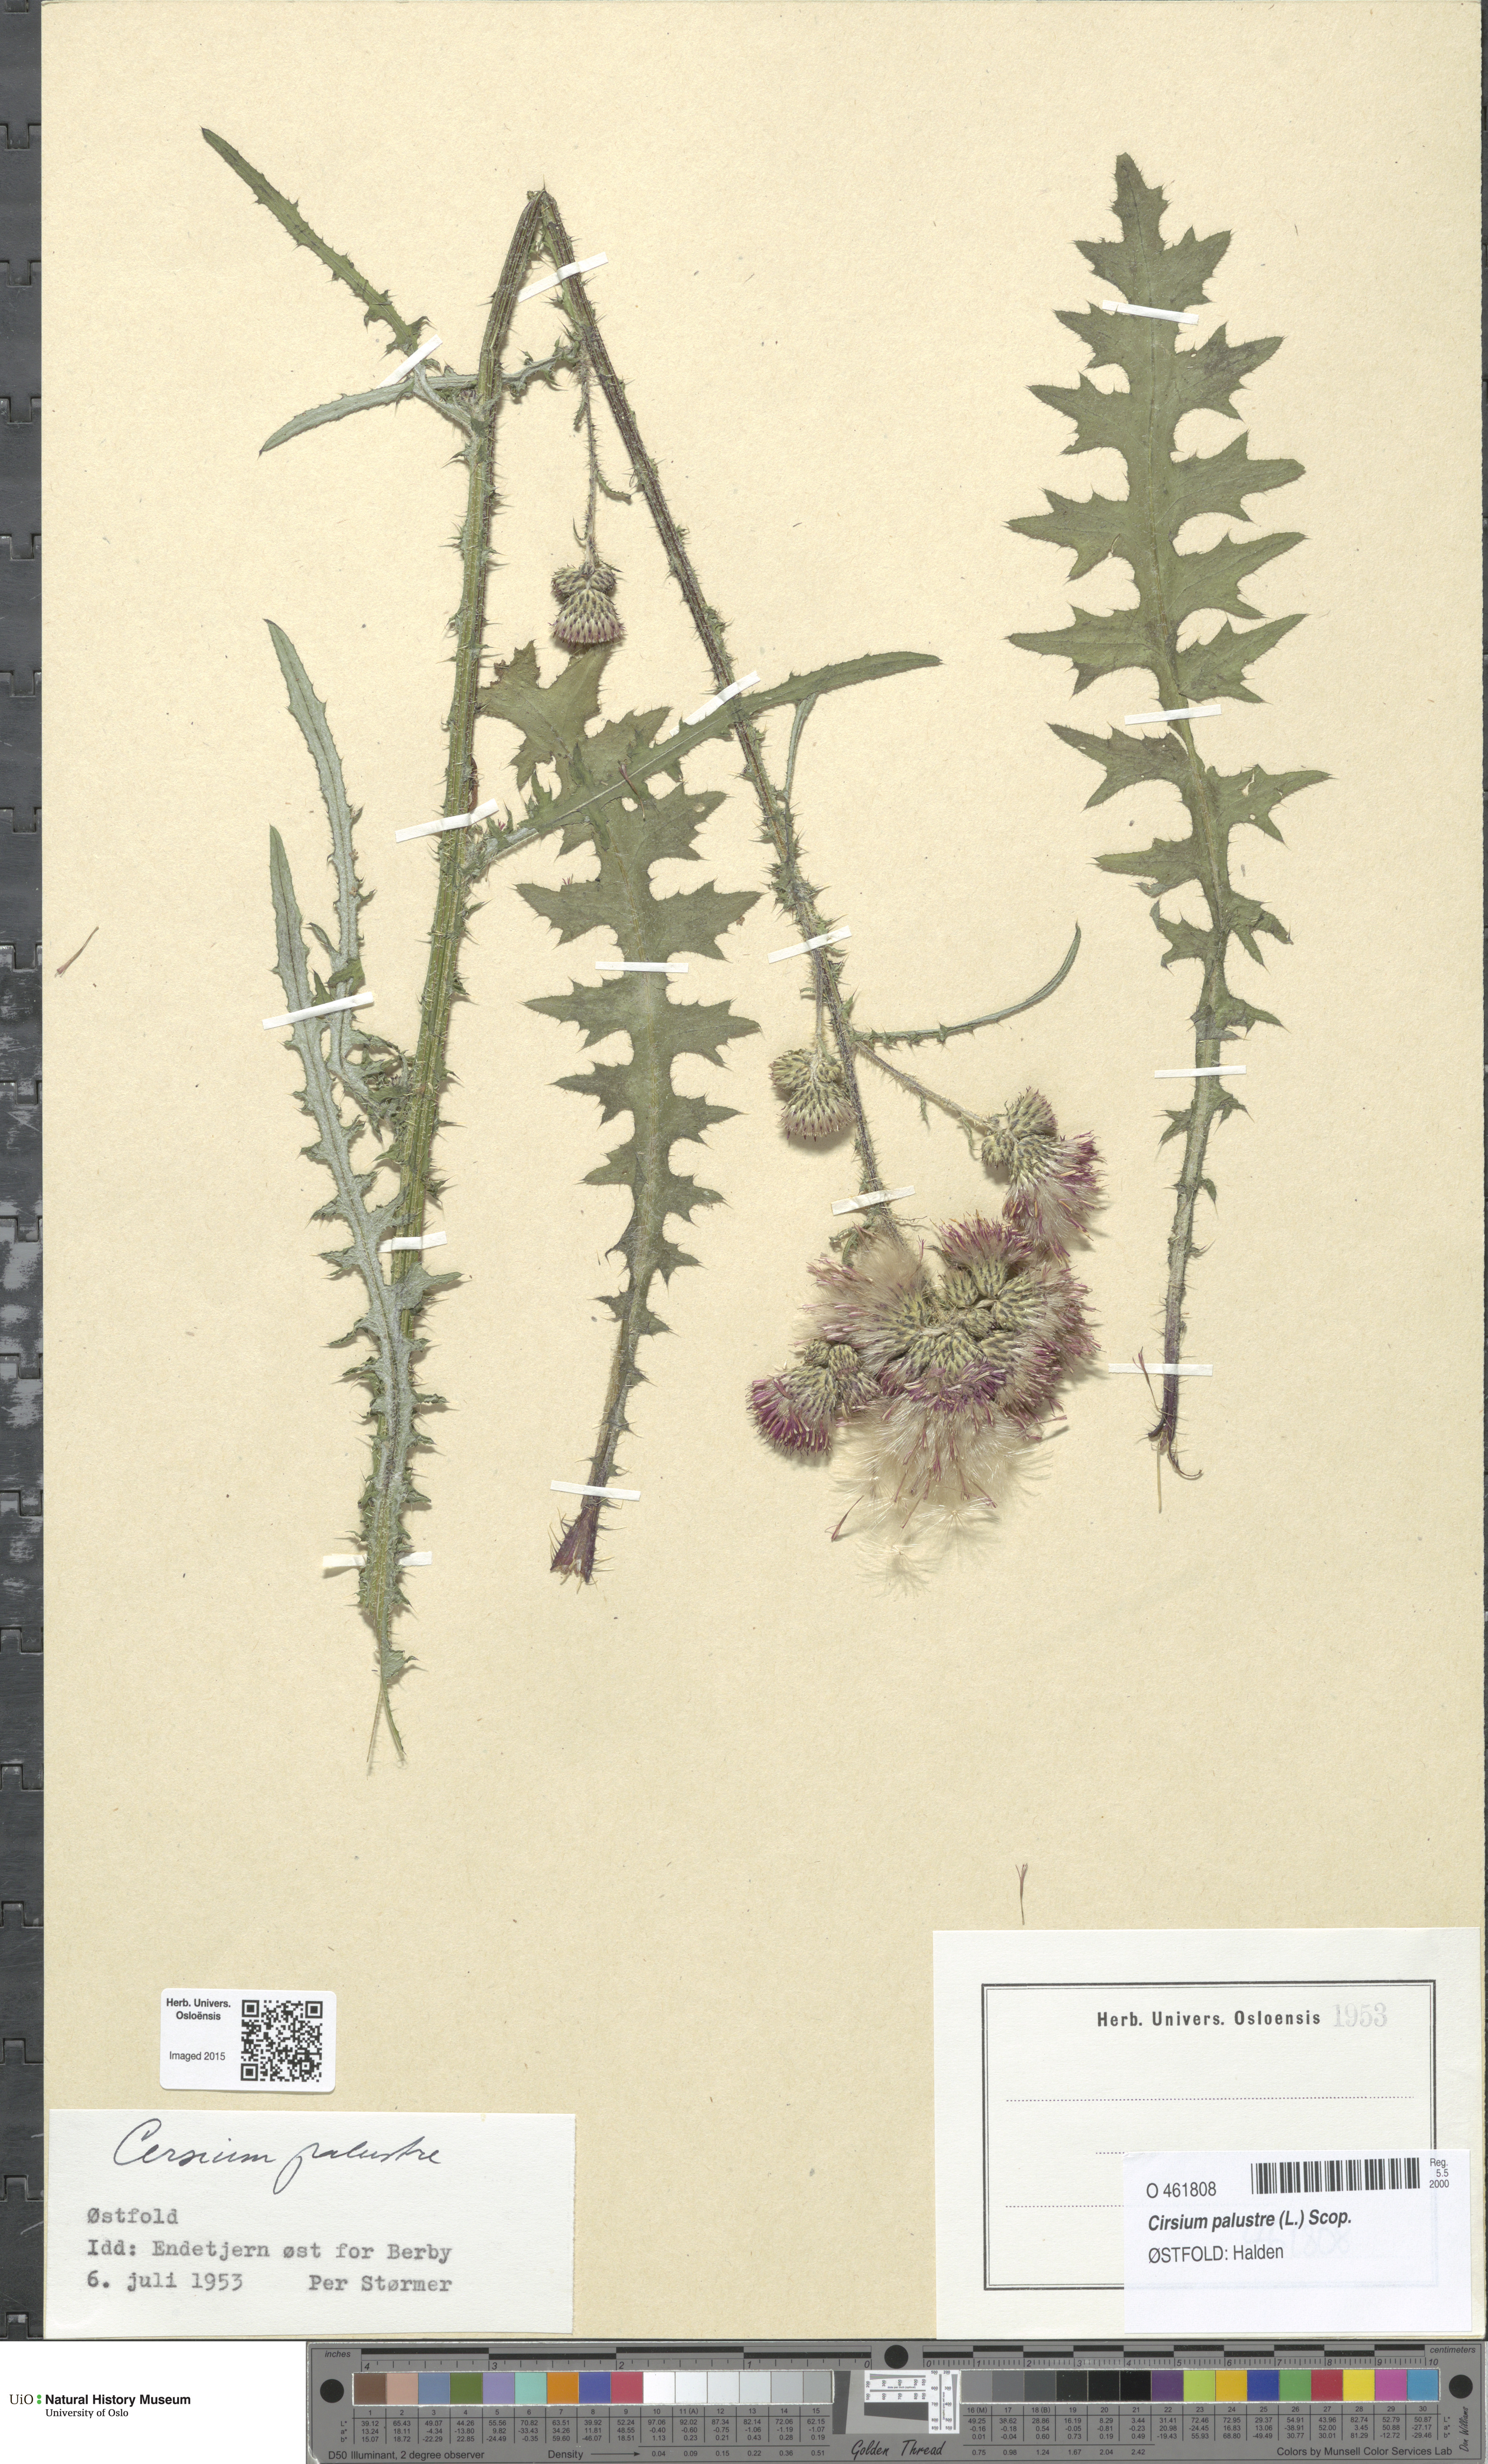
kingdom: Plantae
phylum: Tracheophyta
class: Magnoliopsida
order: Asterales
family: Asteraceae
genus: Cirsium
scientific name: Cirsium palustre
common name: Marsh thistle
